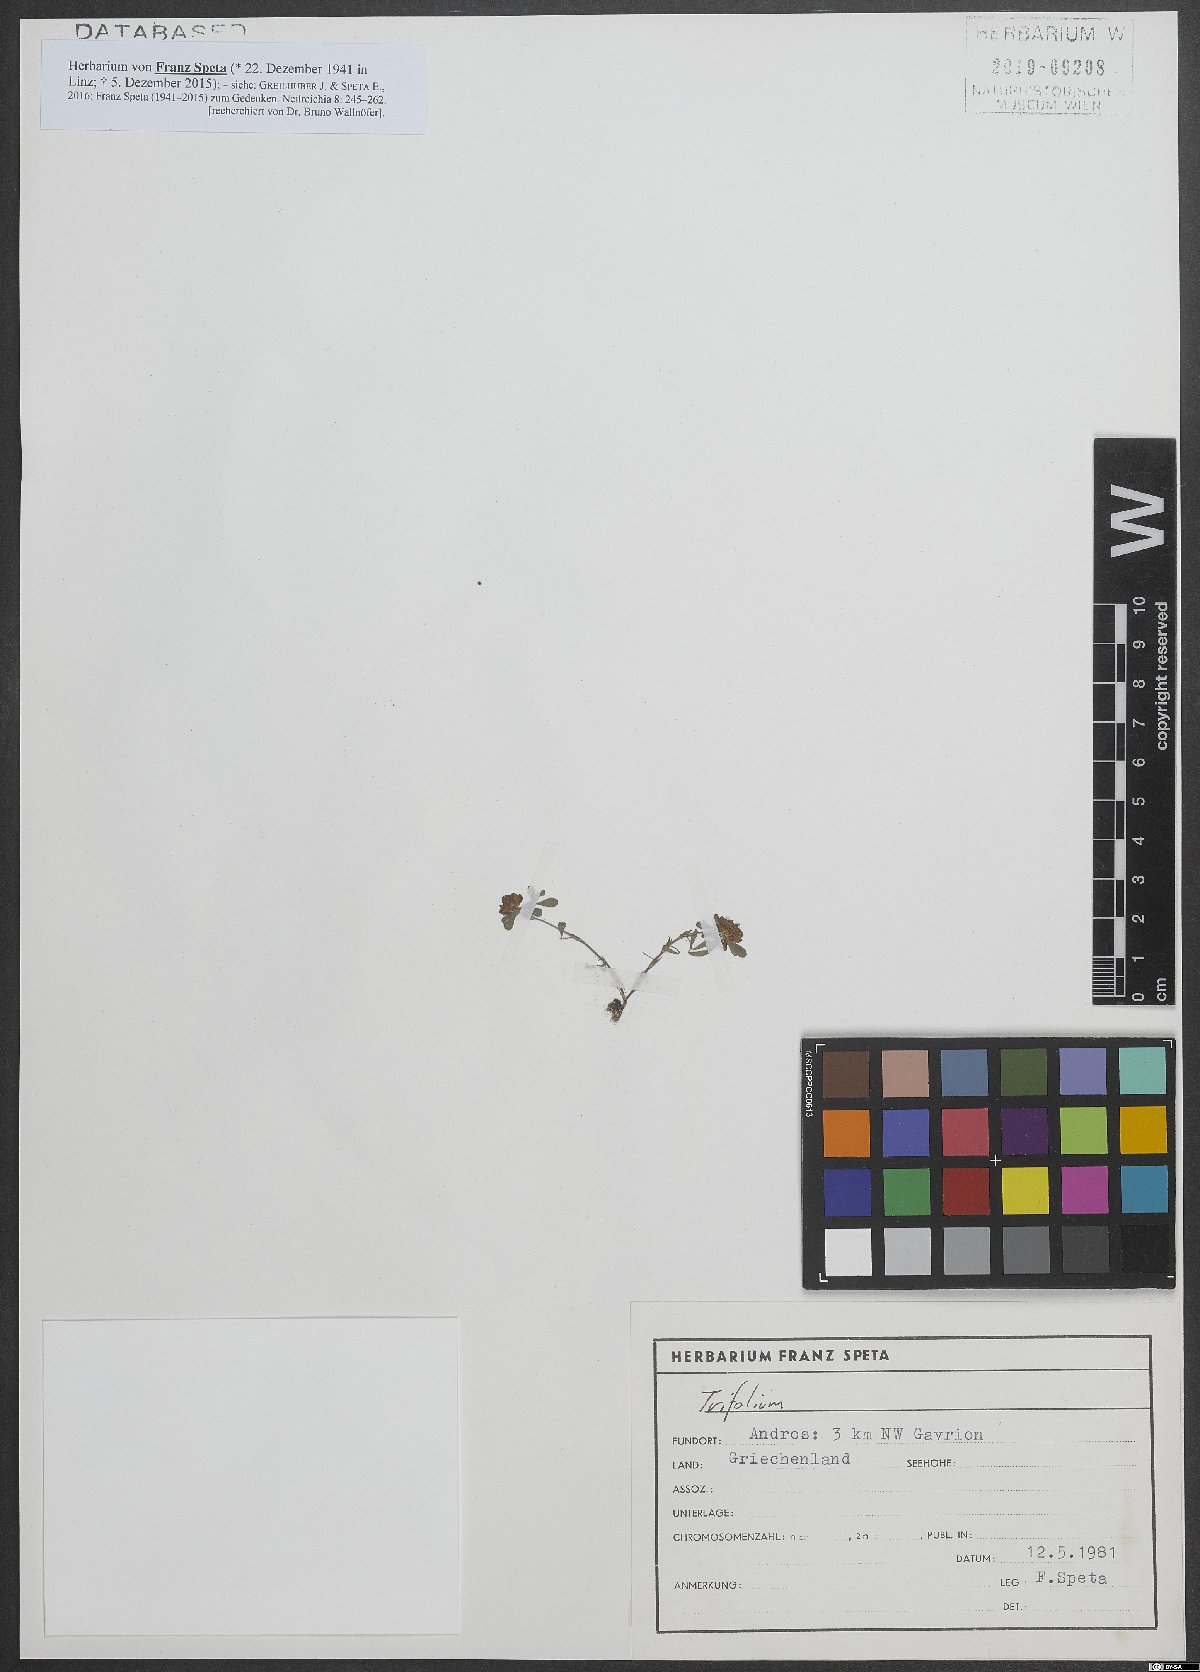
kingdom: Plantae
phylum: Tracheophyta
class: Magnoliopsida
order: Fabales
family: Fabaceae
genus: Trifolium
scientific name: Trifolium campestre
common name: Field clover
